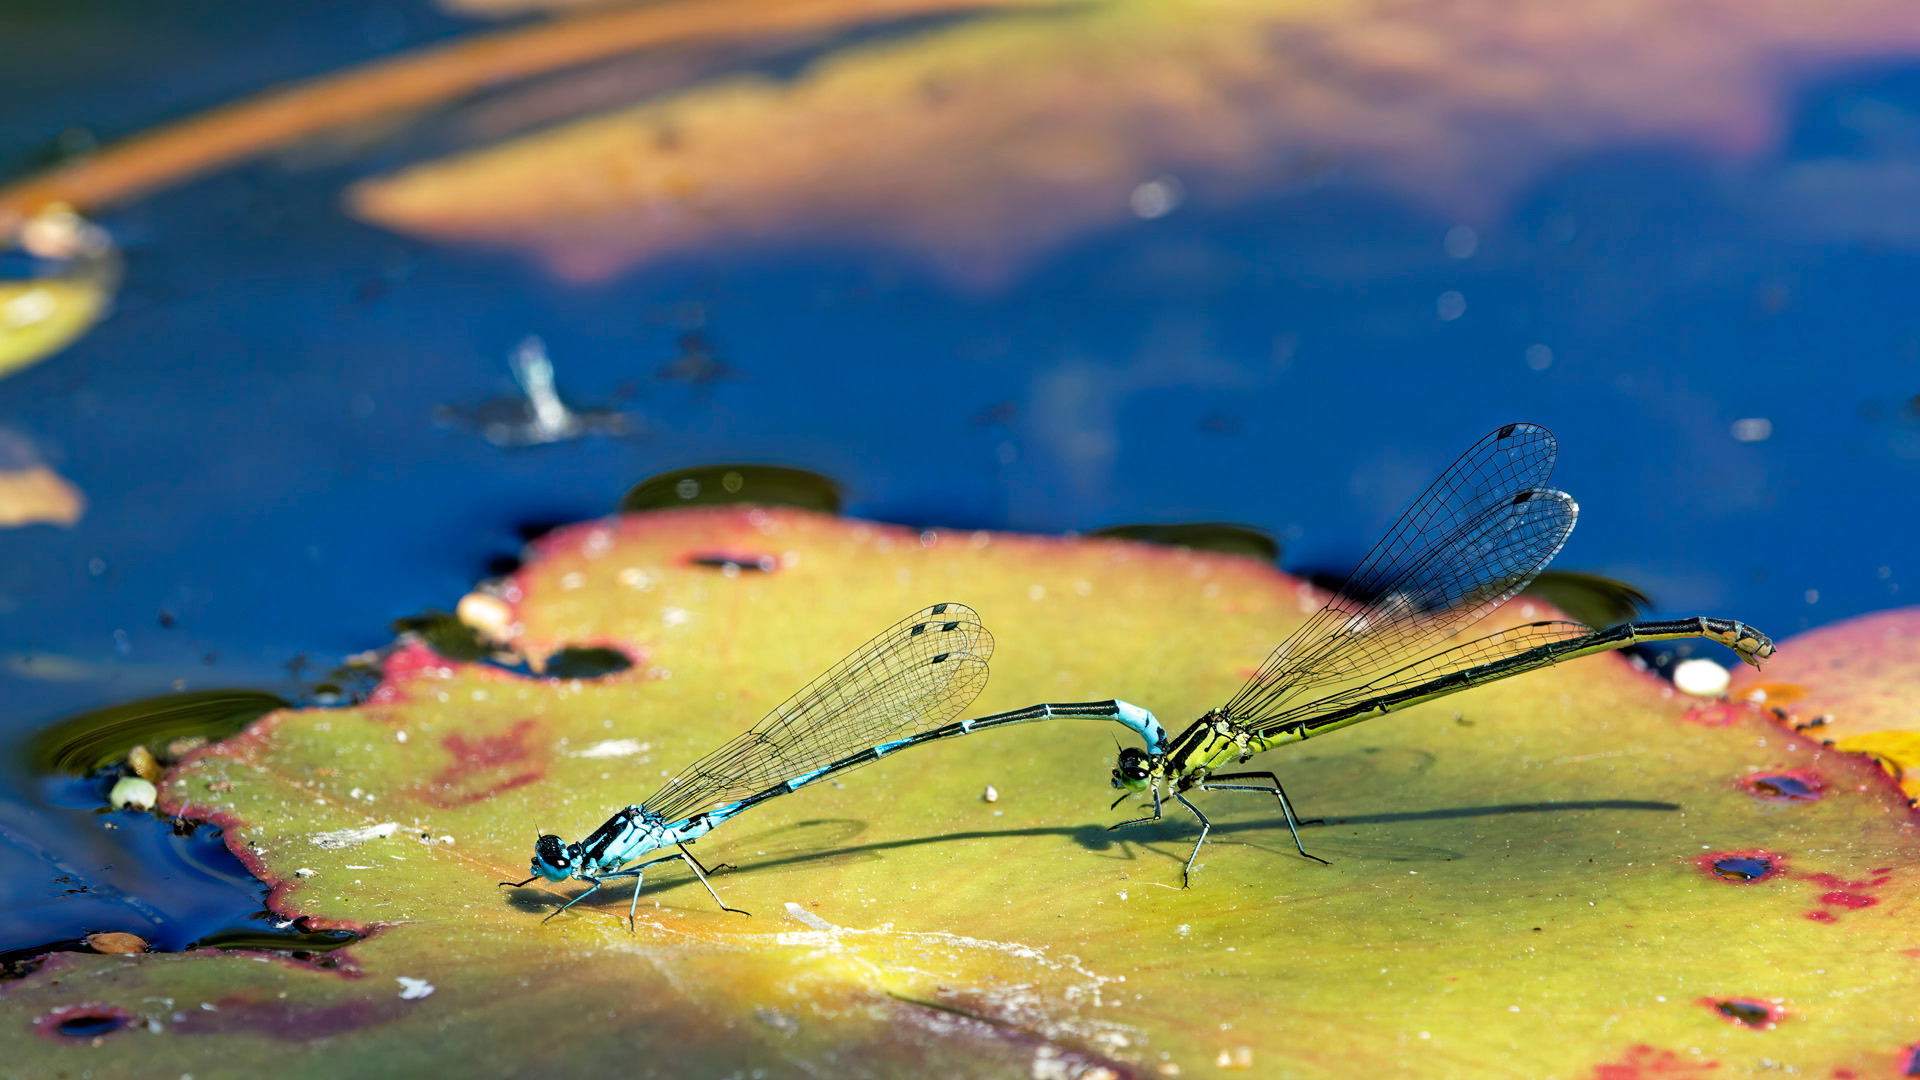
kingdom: Animalia
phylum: Arthropoda
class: Insecta
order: Odonata
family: Coenagrionidae
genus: Coenagrion
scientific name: Coenagrion pulchellum
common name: Flagermus-vandnymfe
